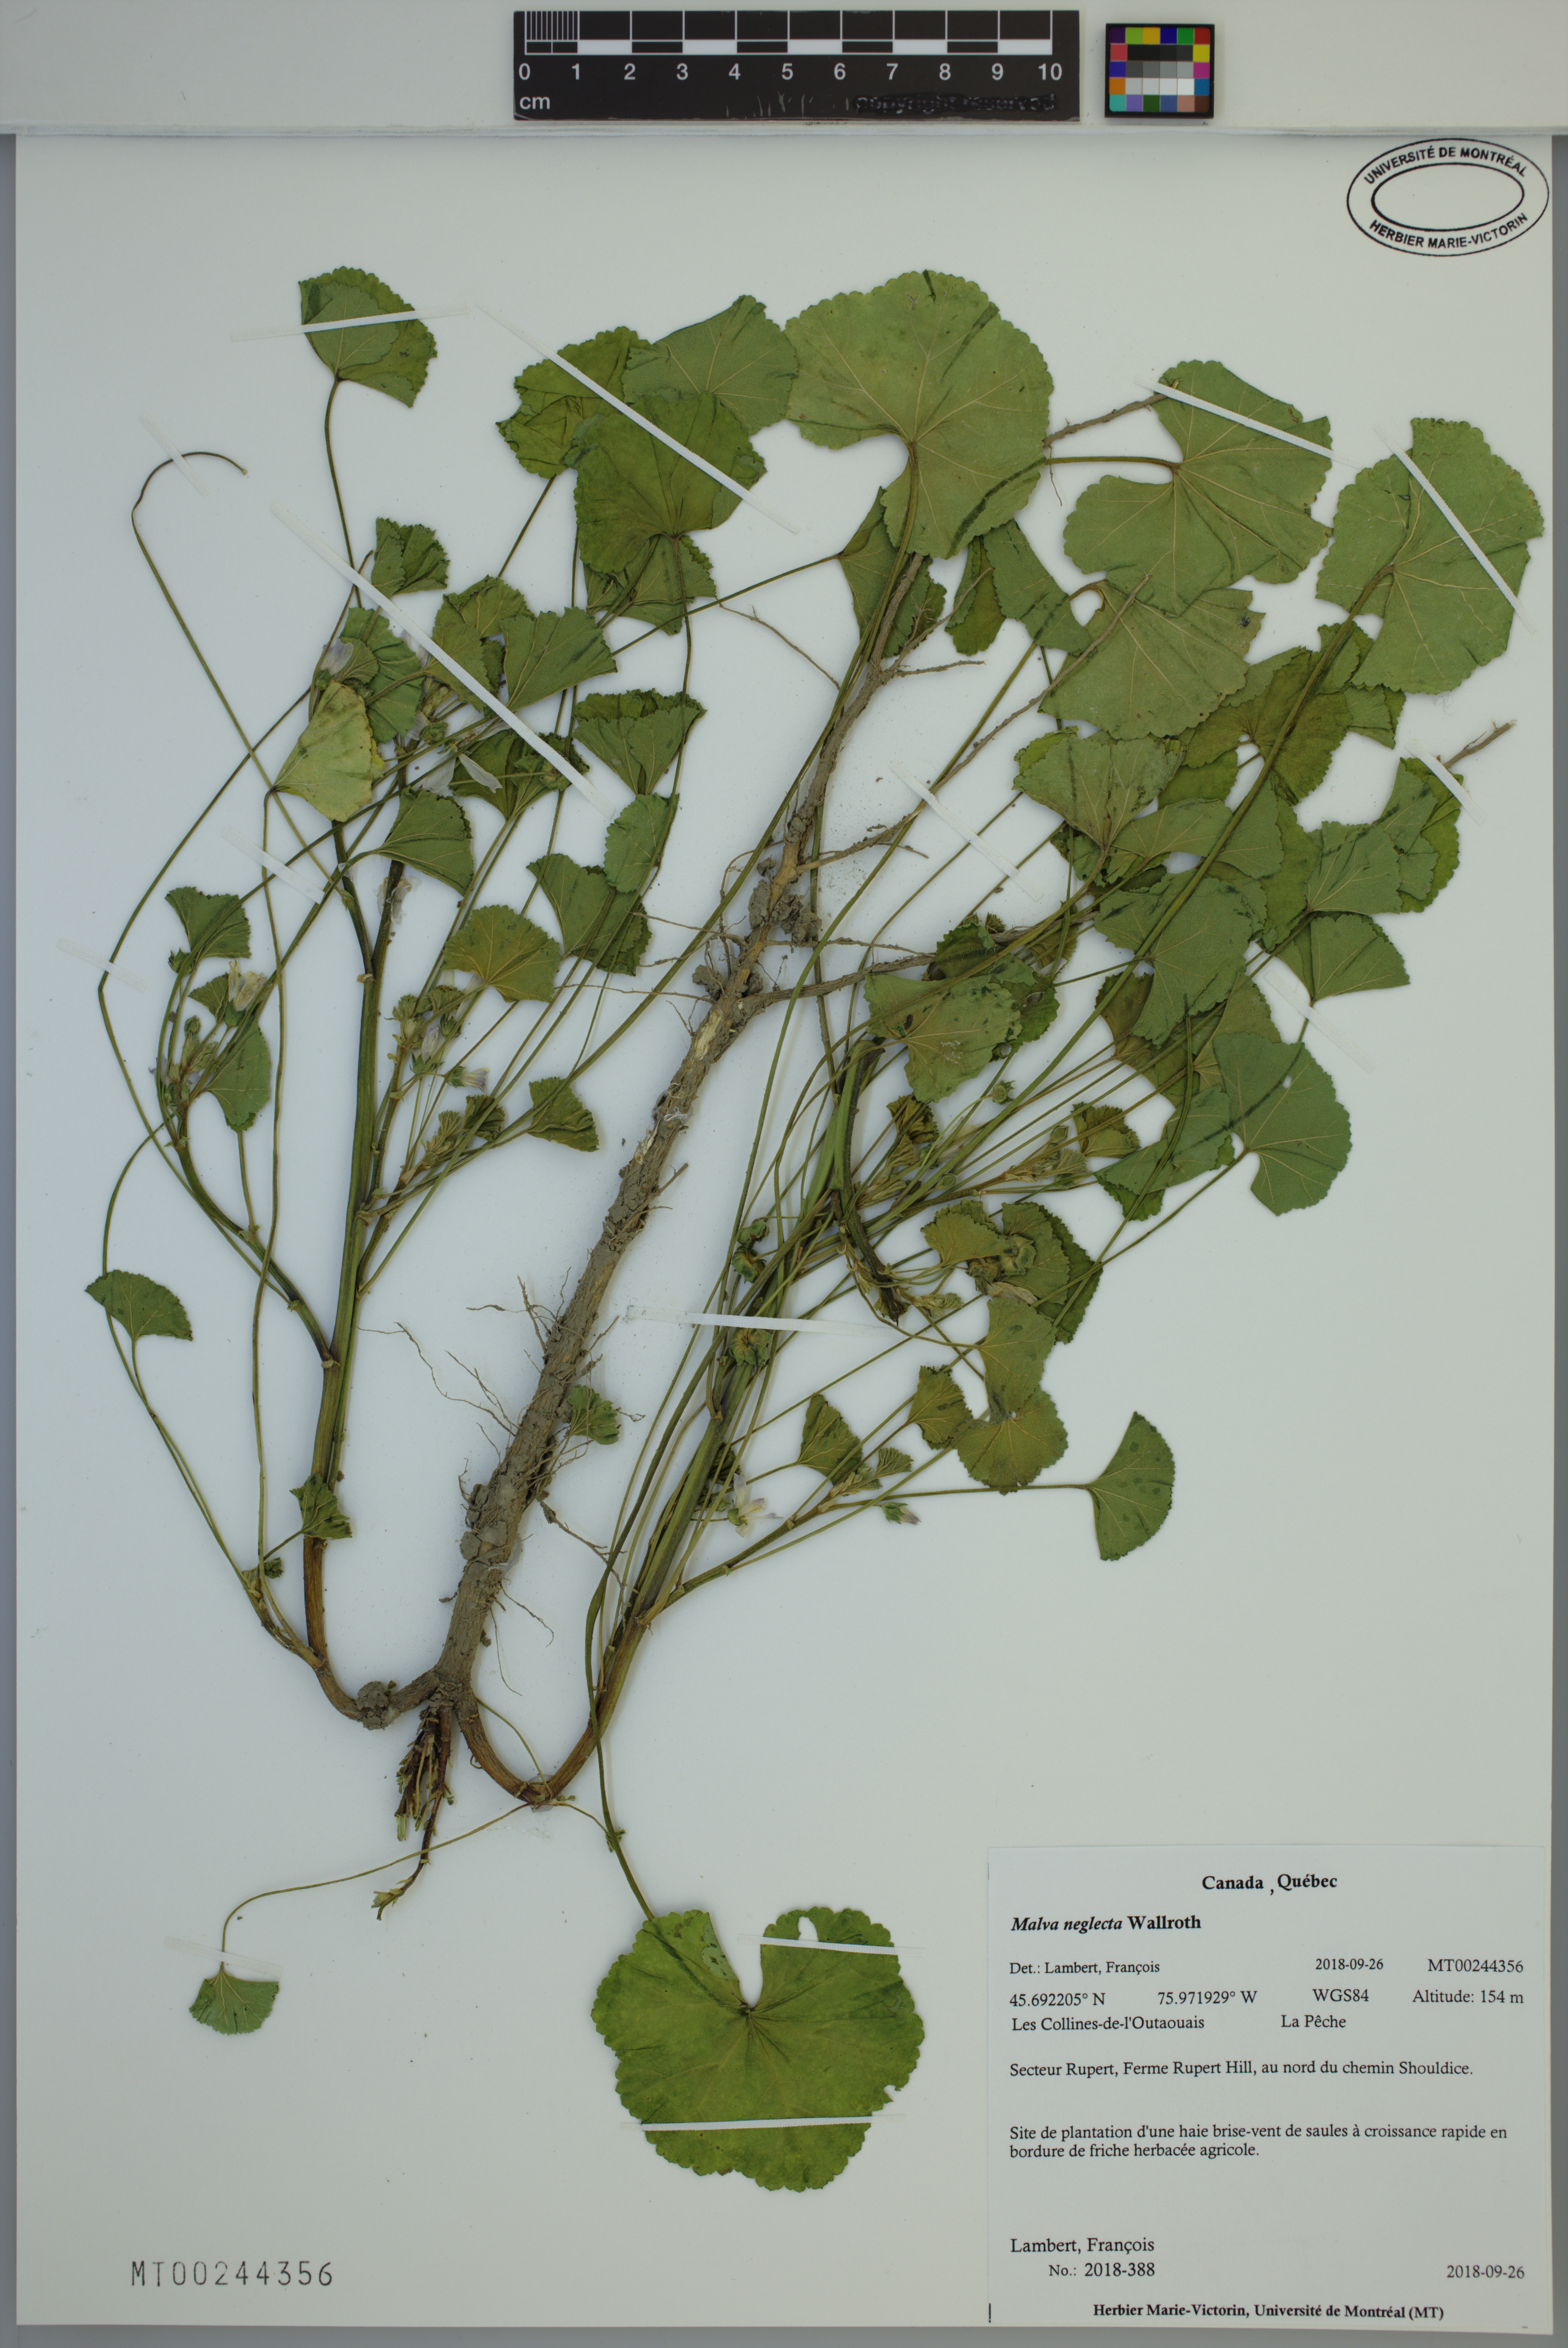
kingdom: Plantae
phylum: Tracheophyta
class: Magnoliopsida
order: Malvales
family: Malvaceae
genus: Malva
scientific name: Malva neglecta
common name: Common mallow
